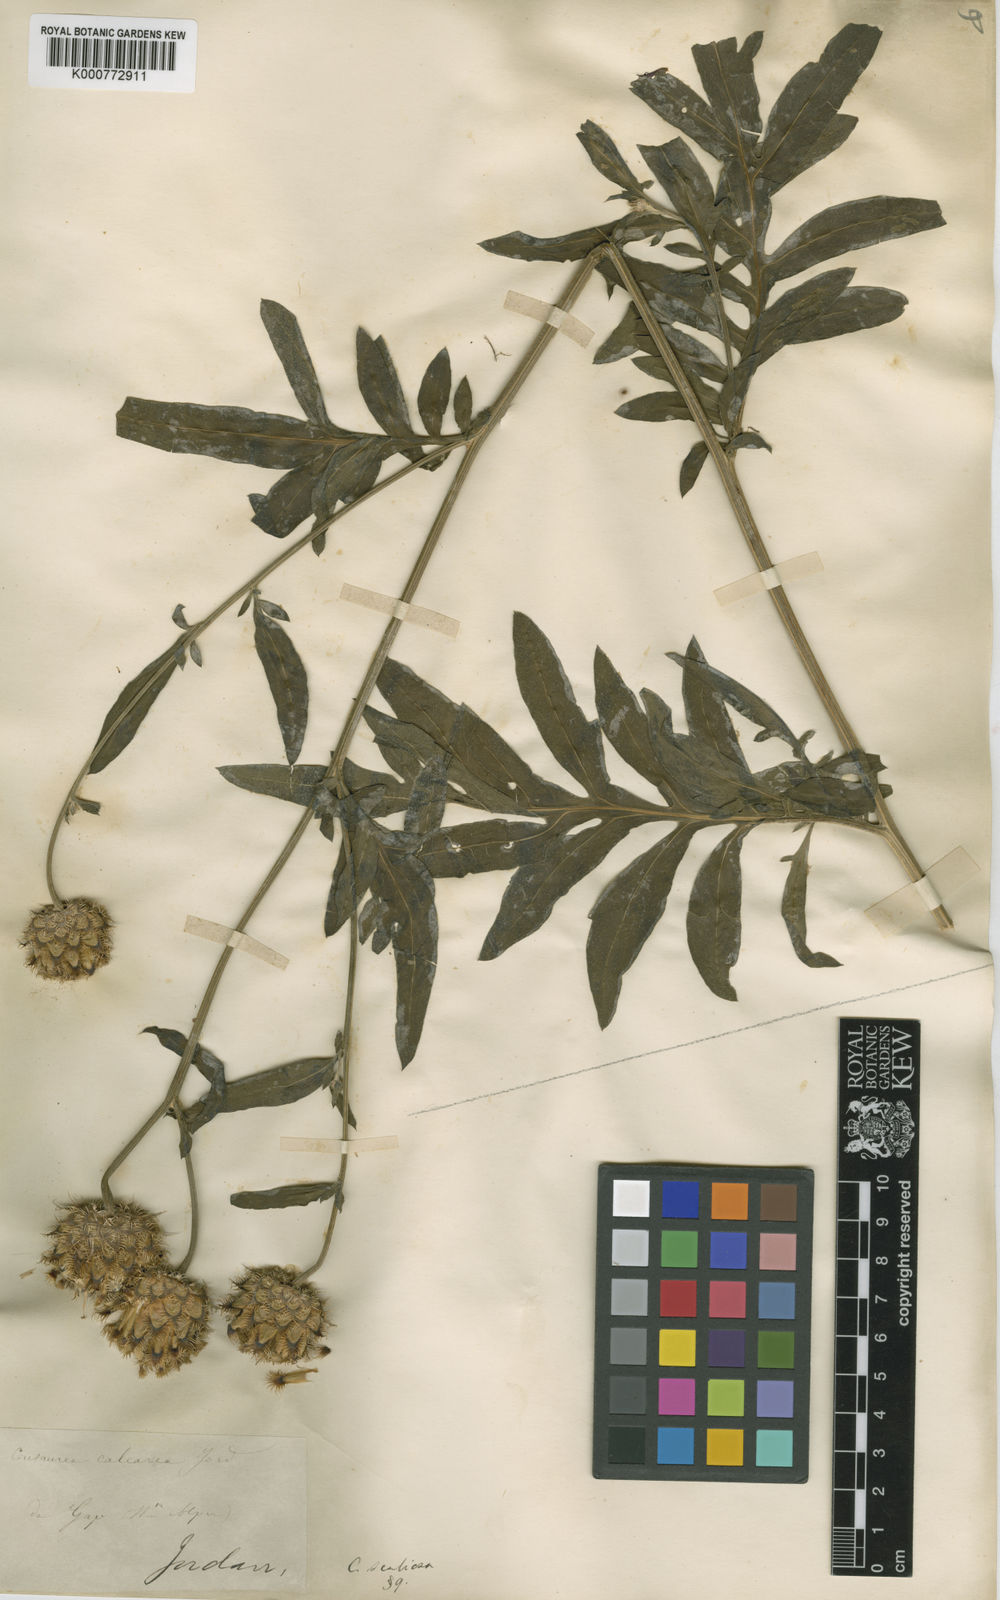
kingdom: Plantae
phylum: Tracheophyta
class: Magnoliopsida
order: Asterales
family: Asteraceae
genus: Centaurea
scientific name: Centaurea scabiosa
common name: Greater knapweed
